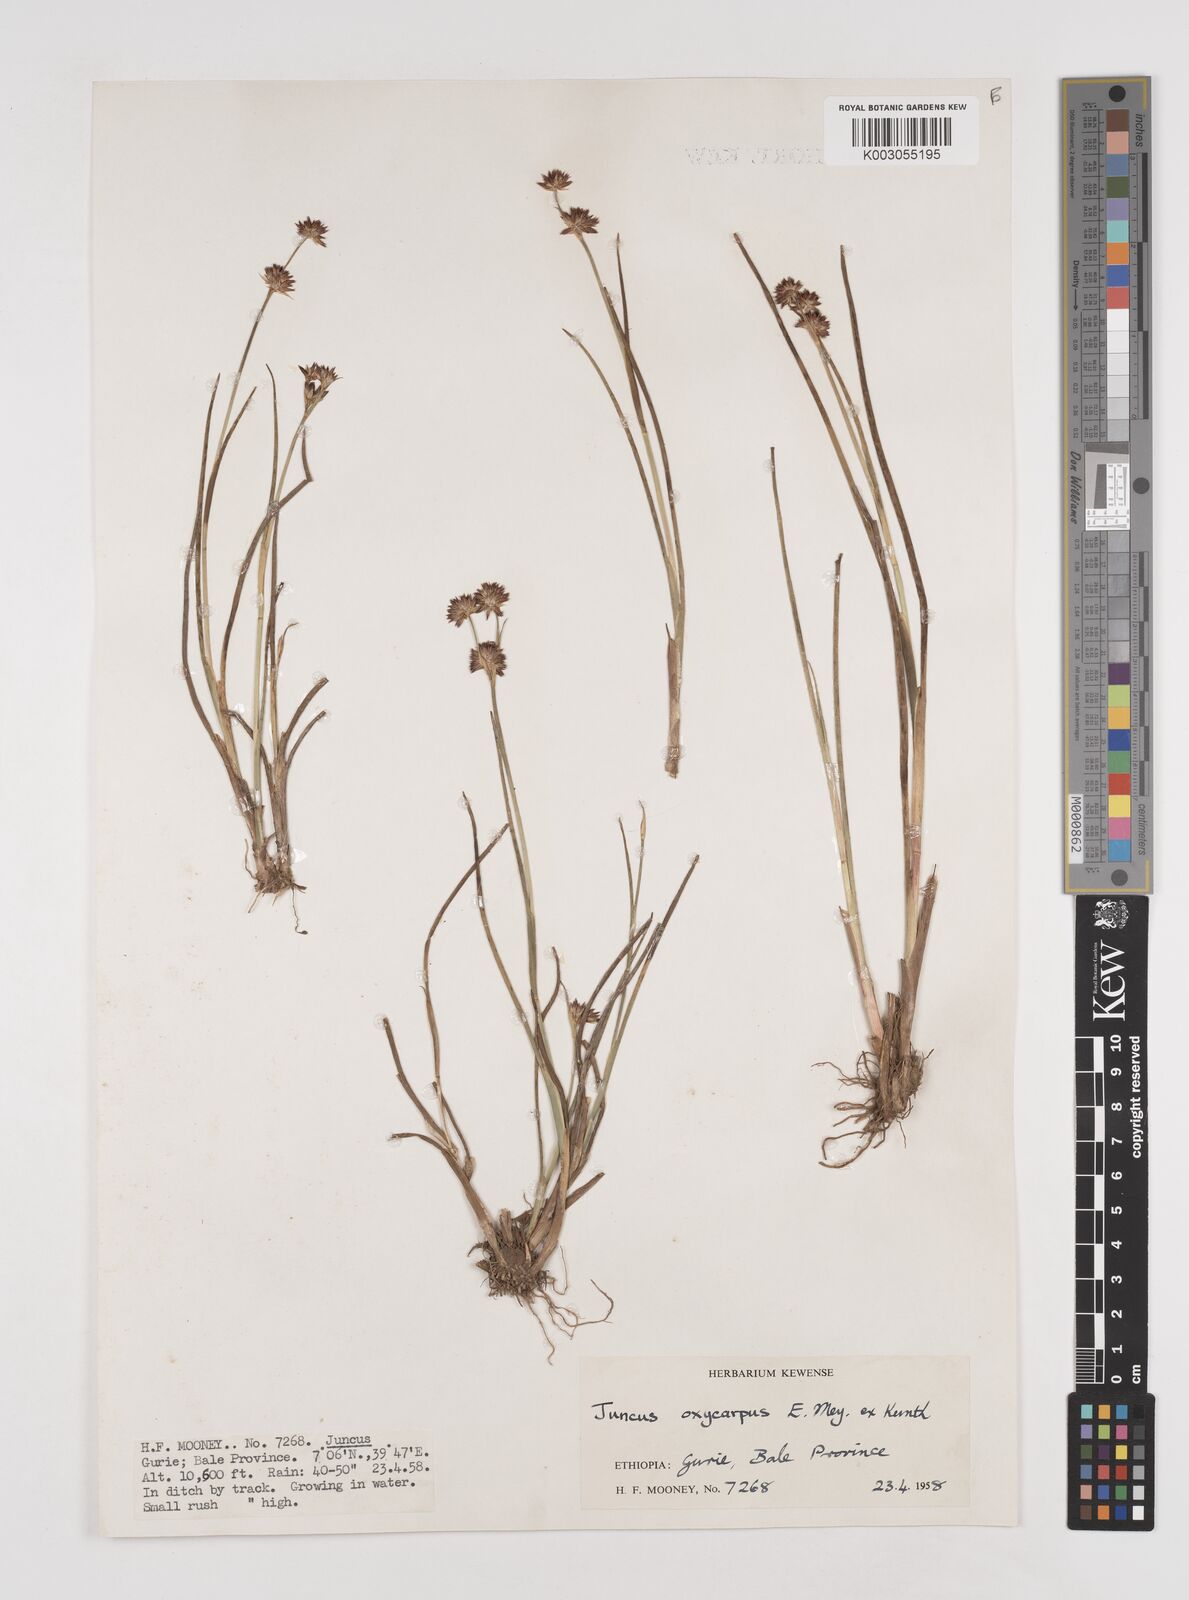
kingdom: Plantae
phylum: Tracheophyta
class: Liliopsida
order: Poales
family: Juncaceae
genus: Juncus
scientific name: Juncus oxycarpus
